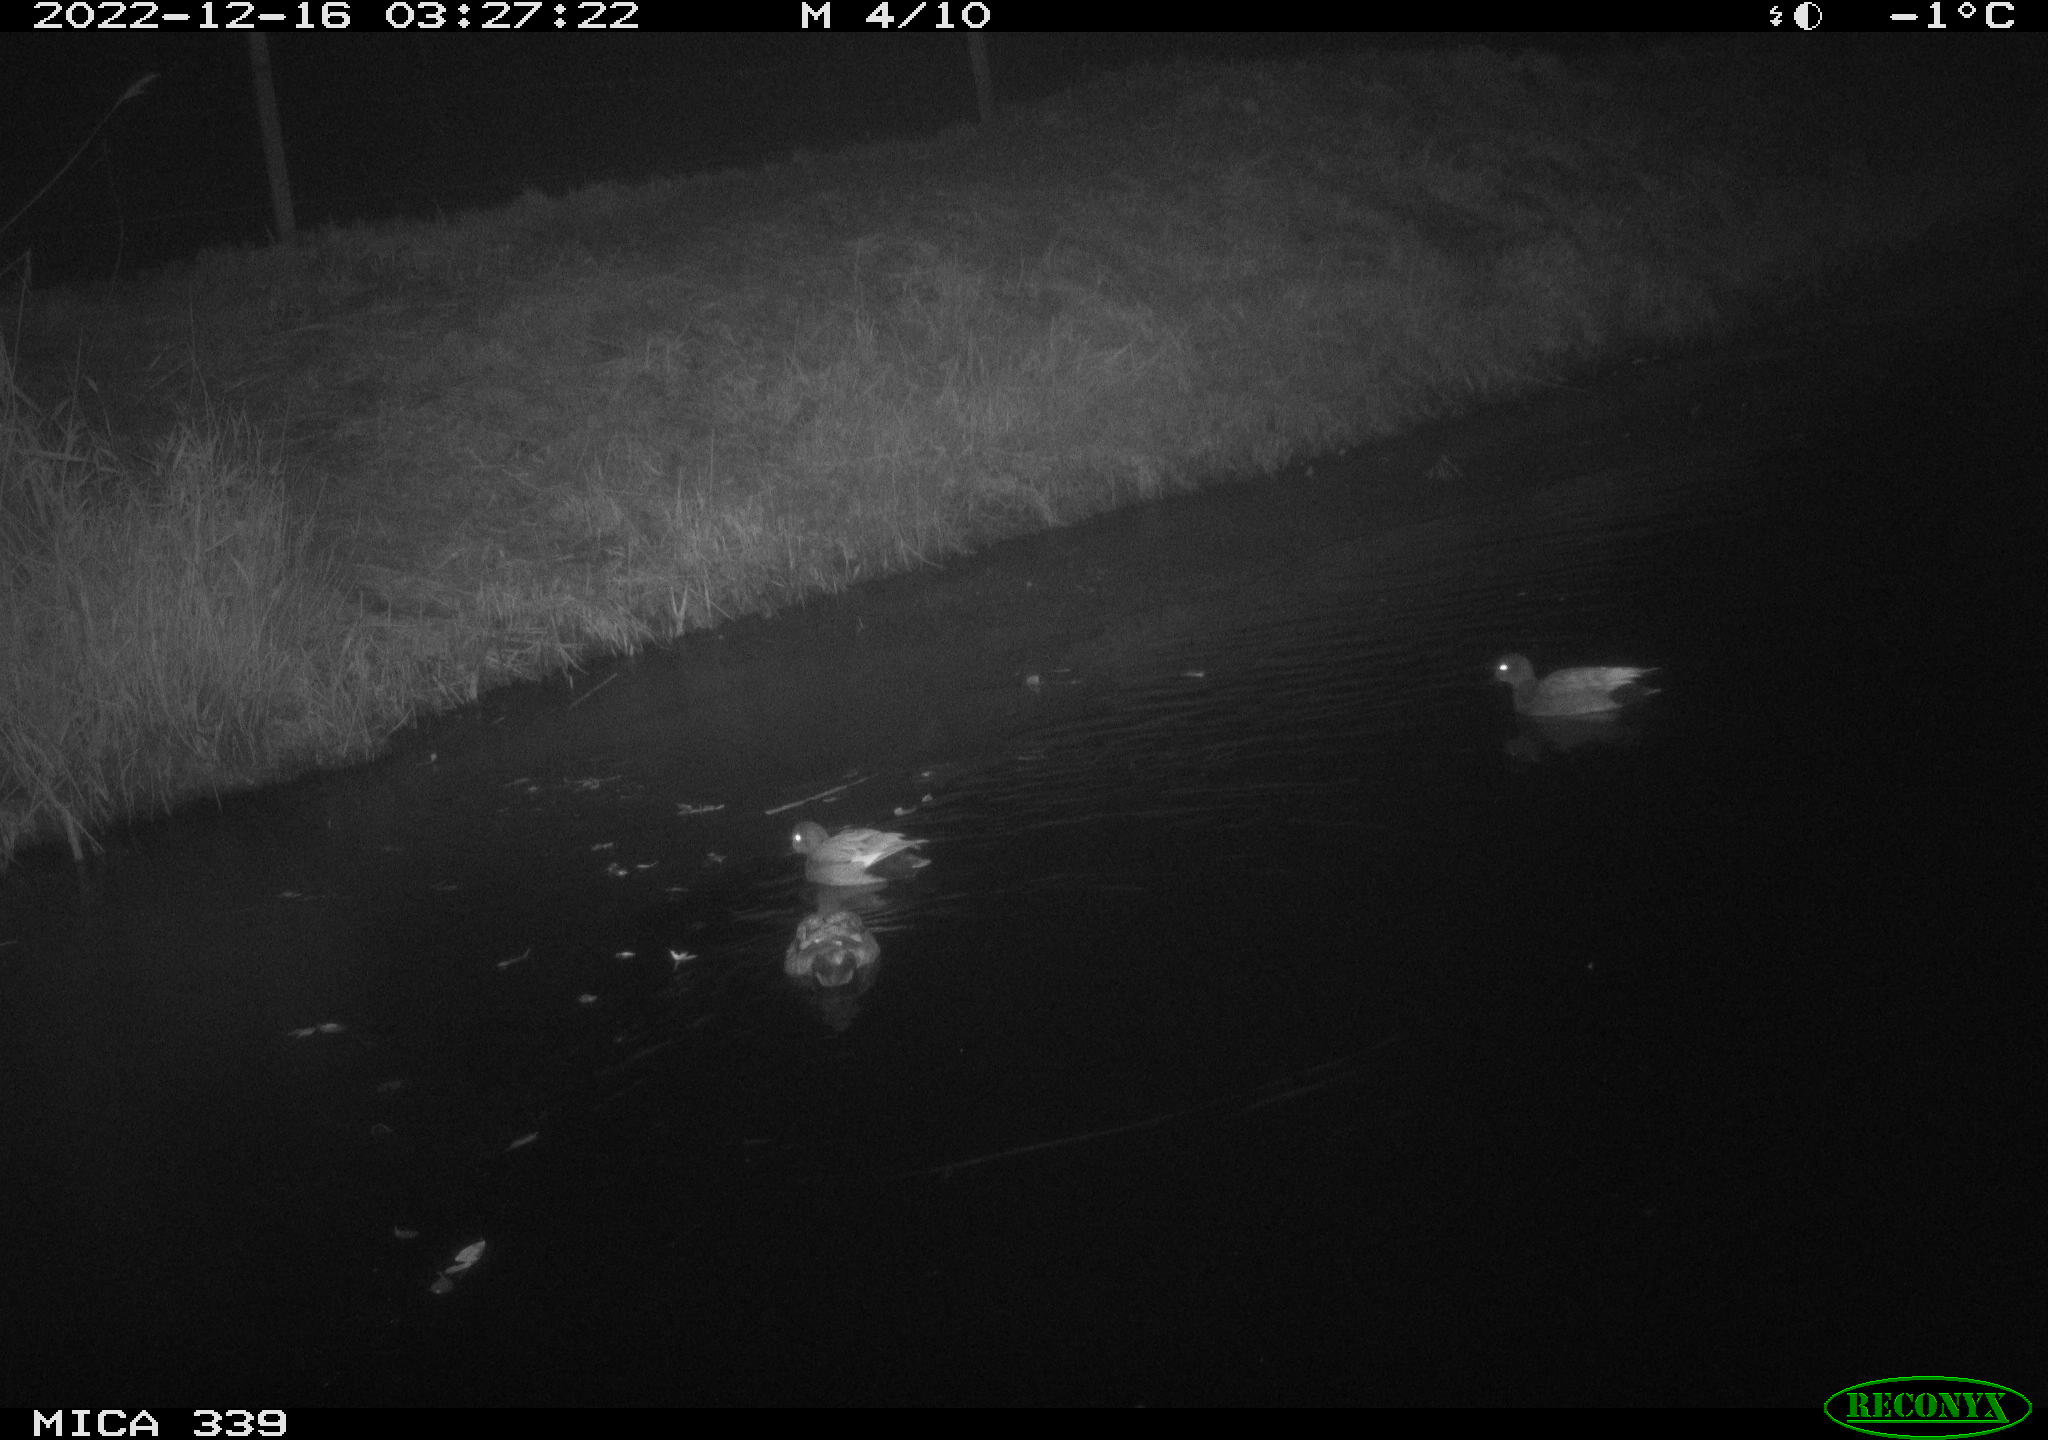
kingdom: Animalia
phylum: Chordata
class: Aves
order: Anseriformes
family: Anatidae
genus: Anas
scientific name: Anas
